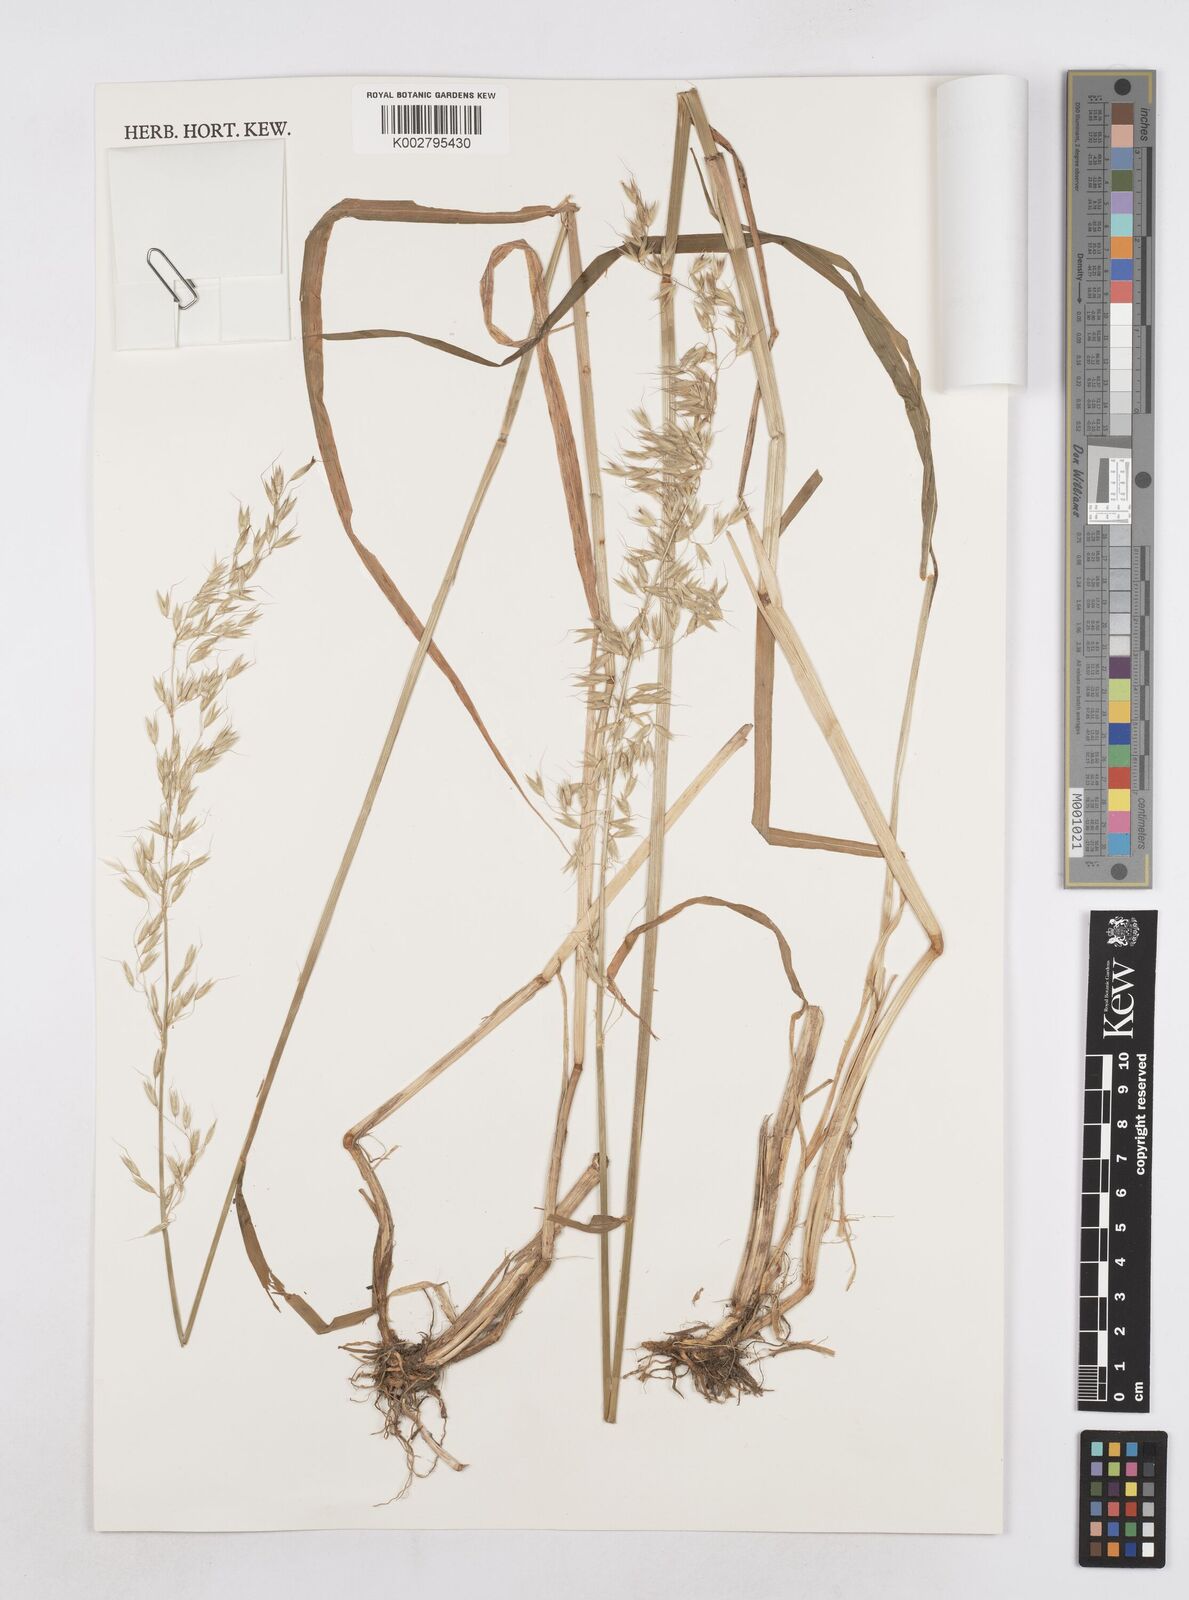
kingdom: Plantae
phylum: Tracheophyta
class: Liliopsida
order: Poales
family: Poaceae
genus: Helictotrichon
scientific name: Helictotrichon hideoi
